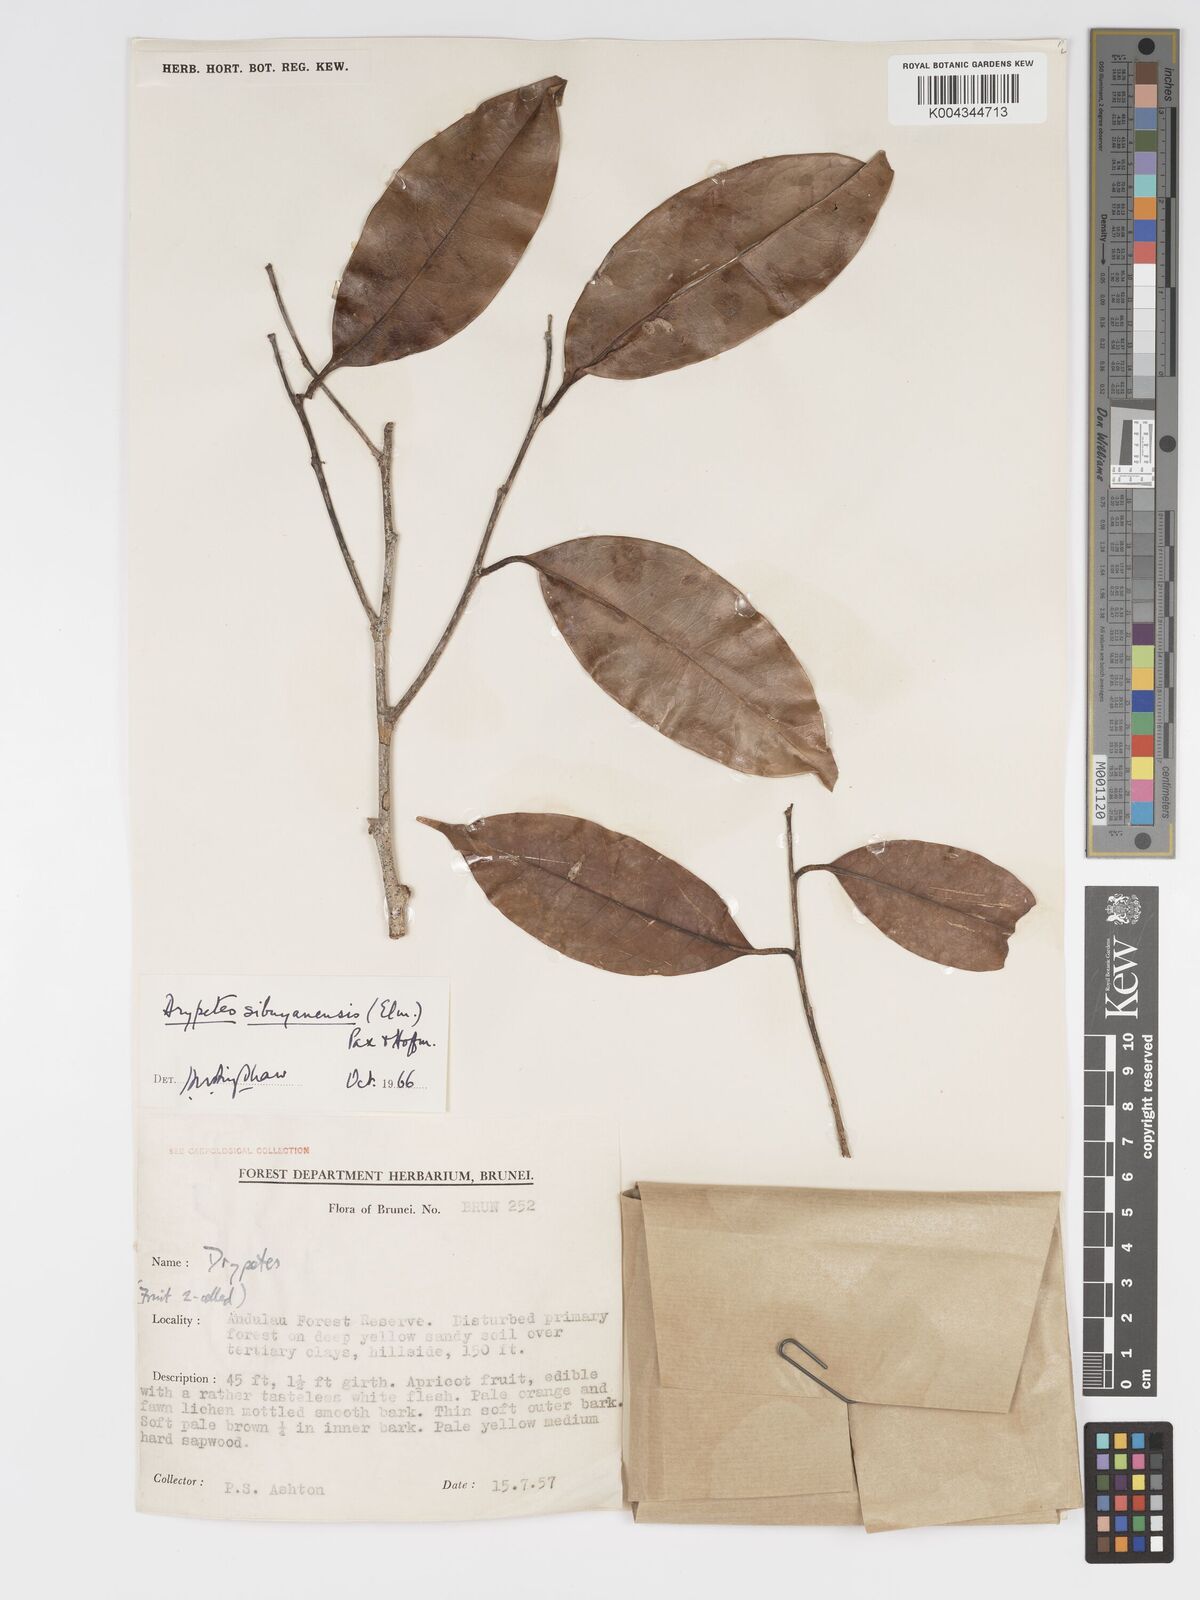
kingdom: Plantae
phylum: Tracheophyta
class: Magnoliopsida
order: Malpighiales
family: Putranjivaceae
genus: Drypetes
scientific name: Drypetes sibuyanensis
